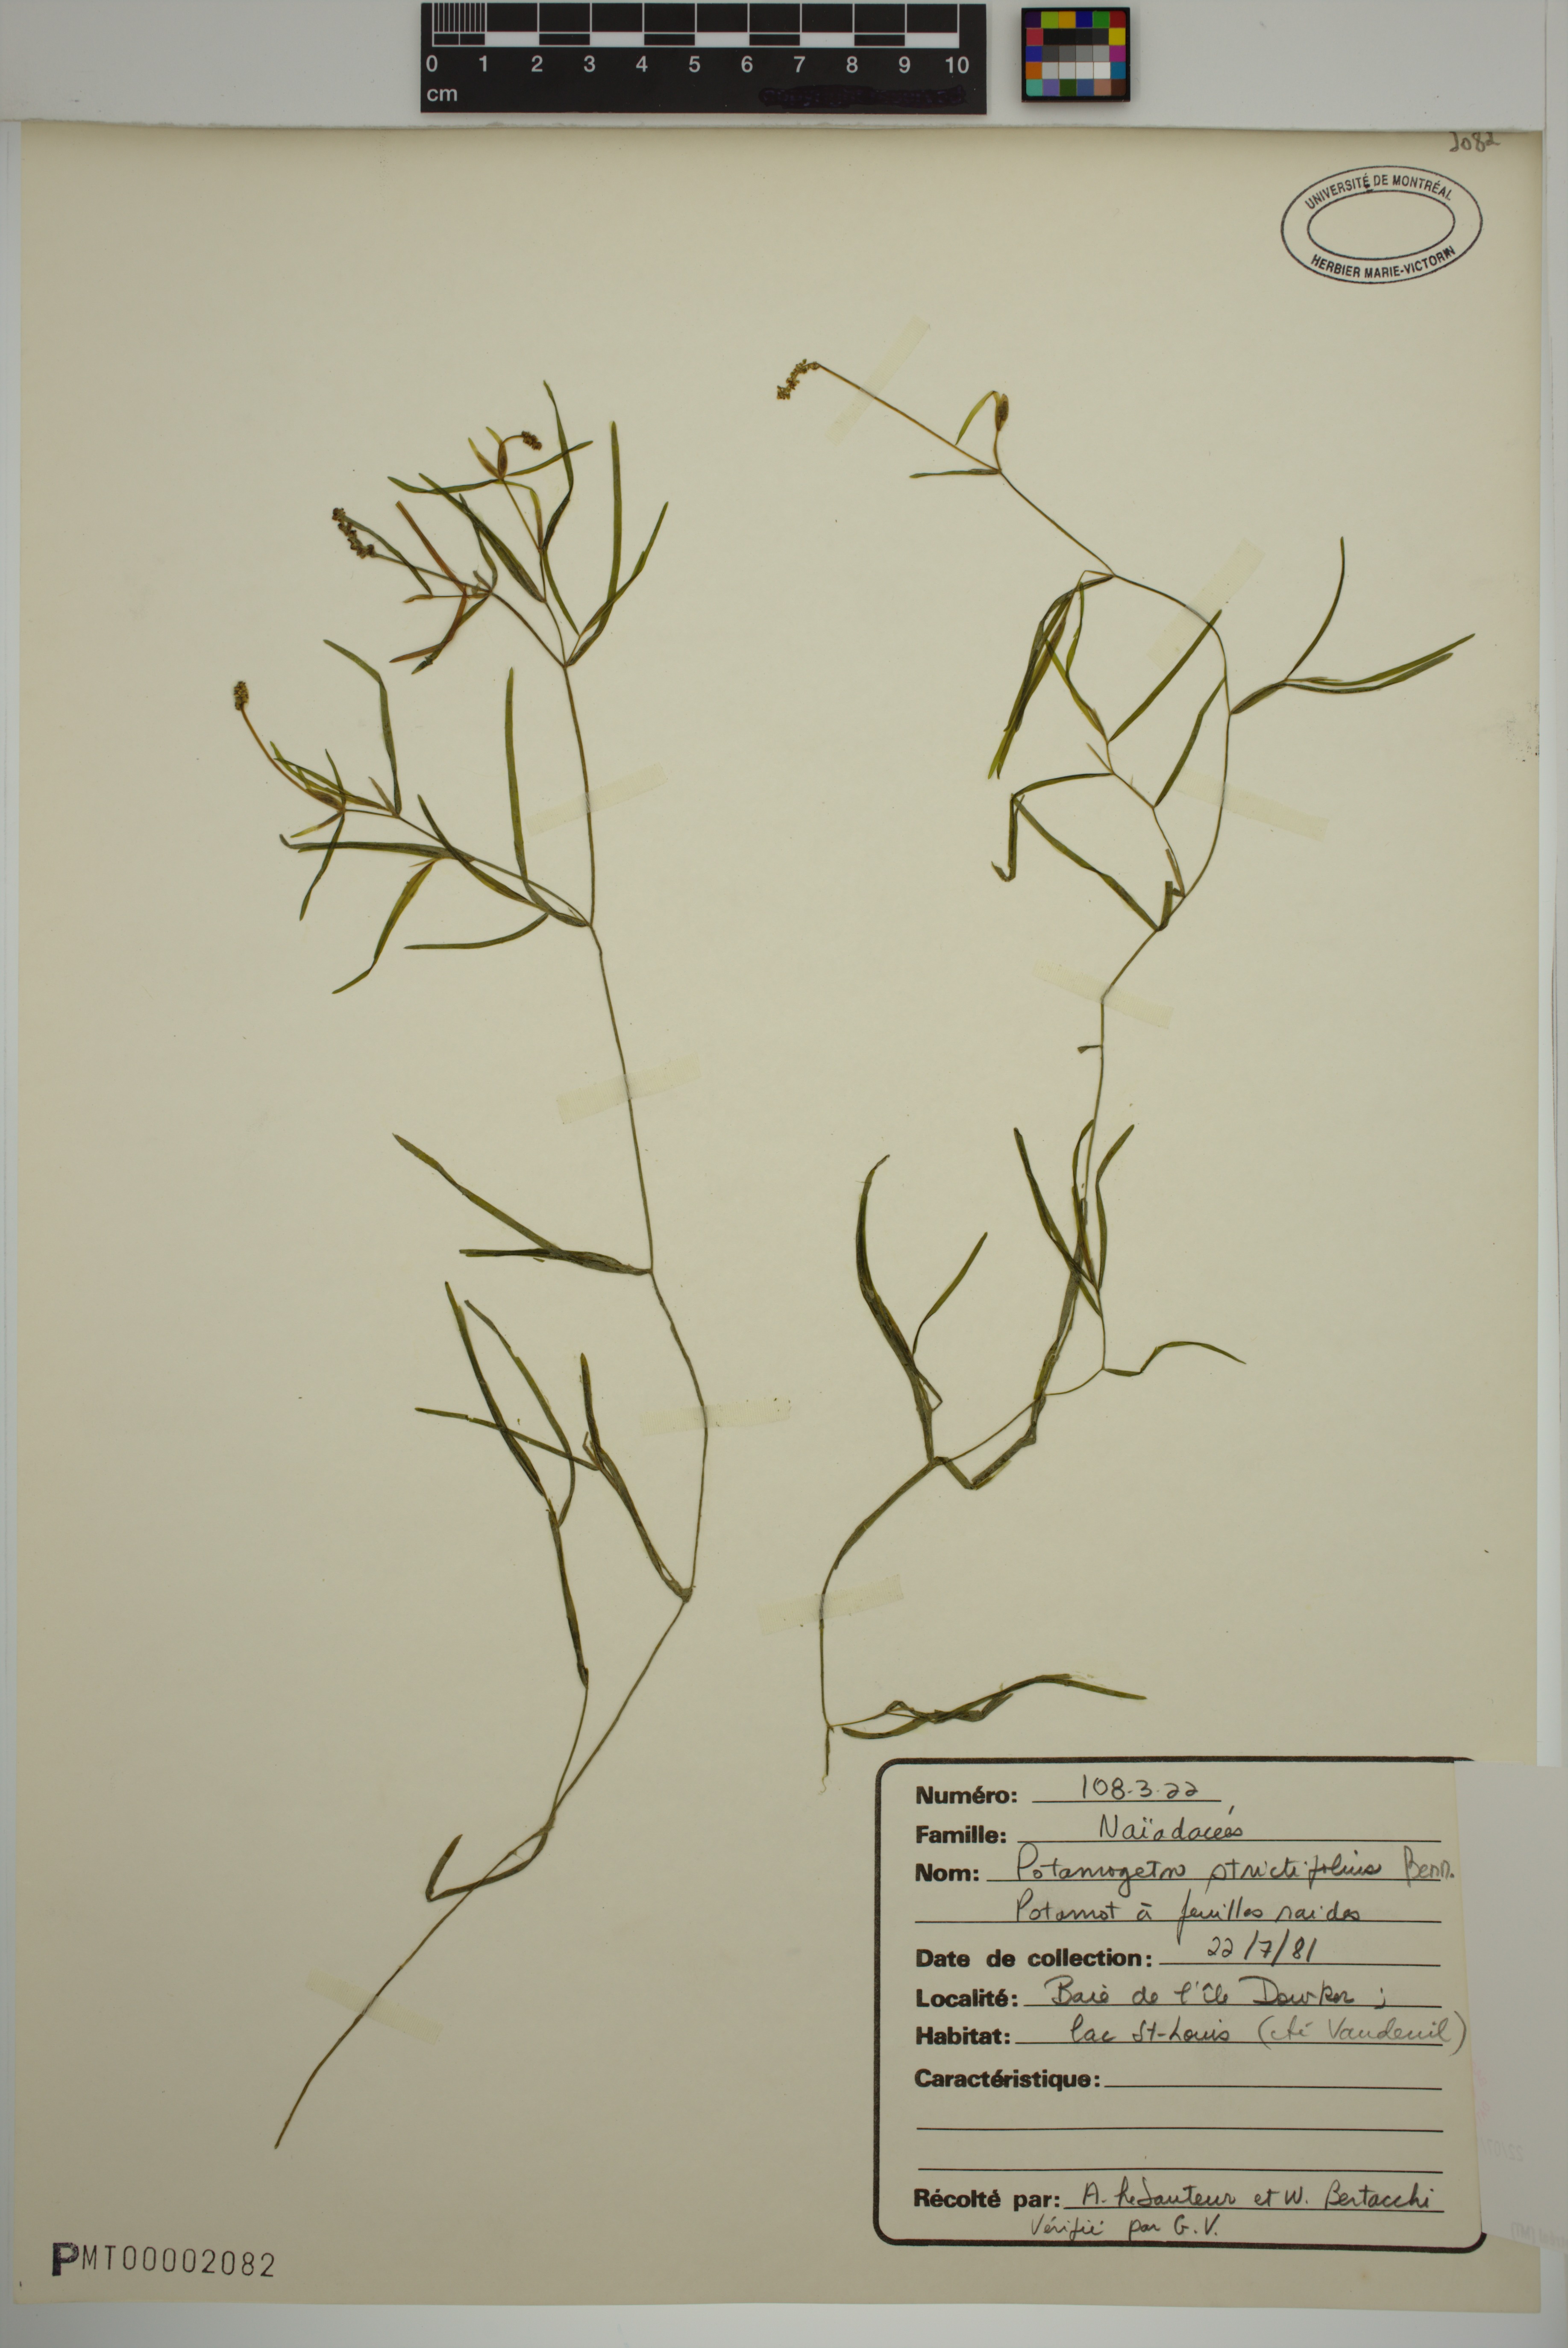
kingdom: Plantae
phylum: Tracheophyta
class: Liliopsida
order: Alismatales
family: Potamogetonaceae
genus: Potamogeton
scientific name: Potamogeton strictifolius
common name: Linear-leaved pondweed
